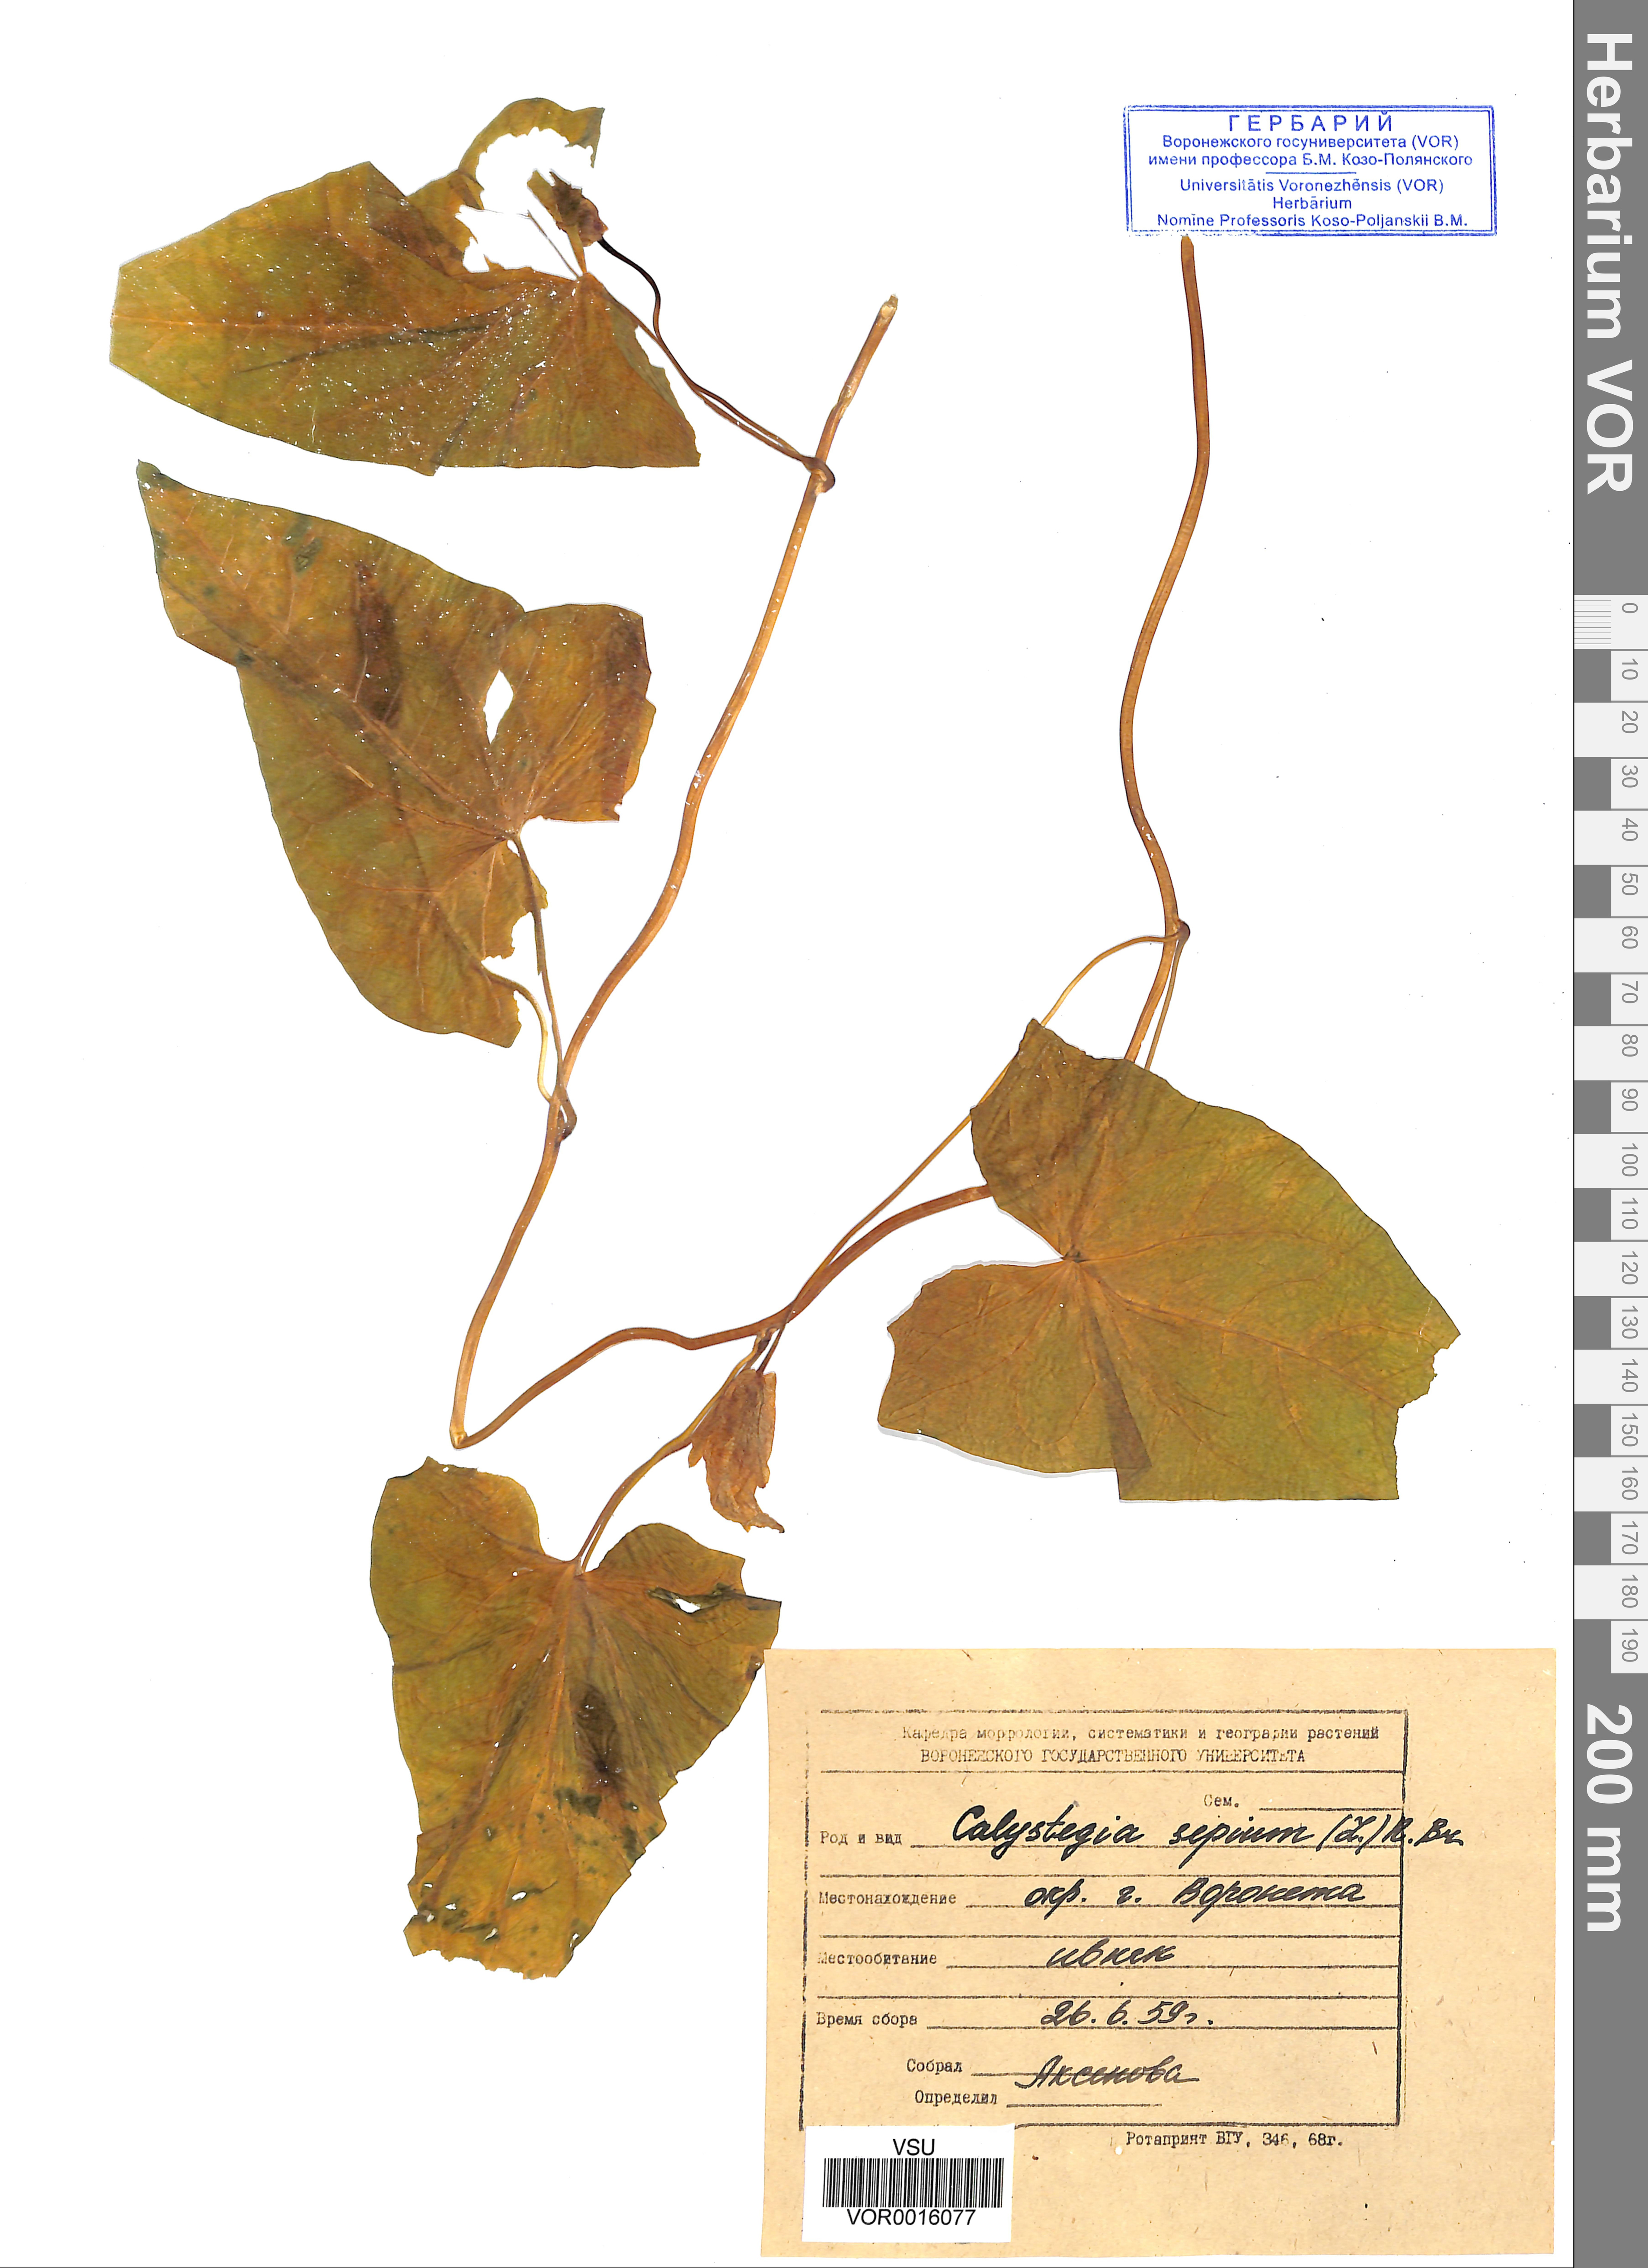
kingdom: Plantae
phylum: Tracheophyta
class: Magnoliopsida
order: Solanales
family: Convolvulaceae
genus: Calystegia
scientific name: Calystegia sepium
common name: Hedge bindweed
